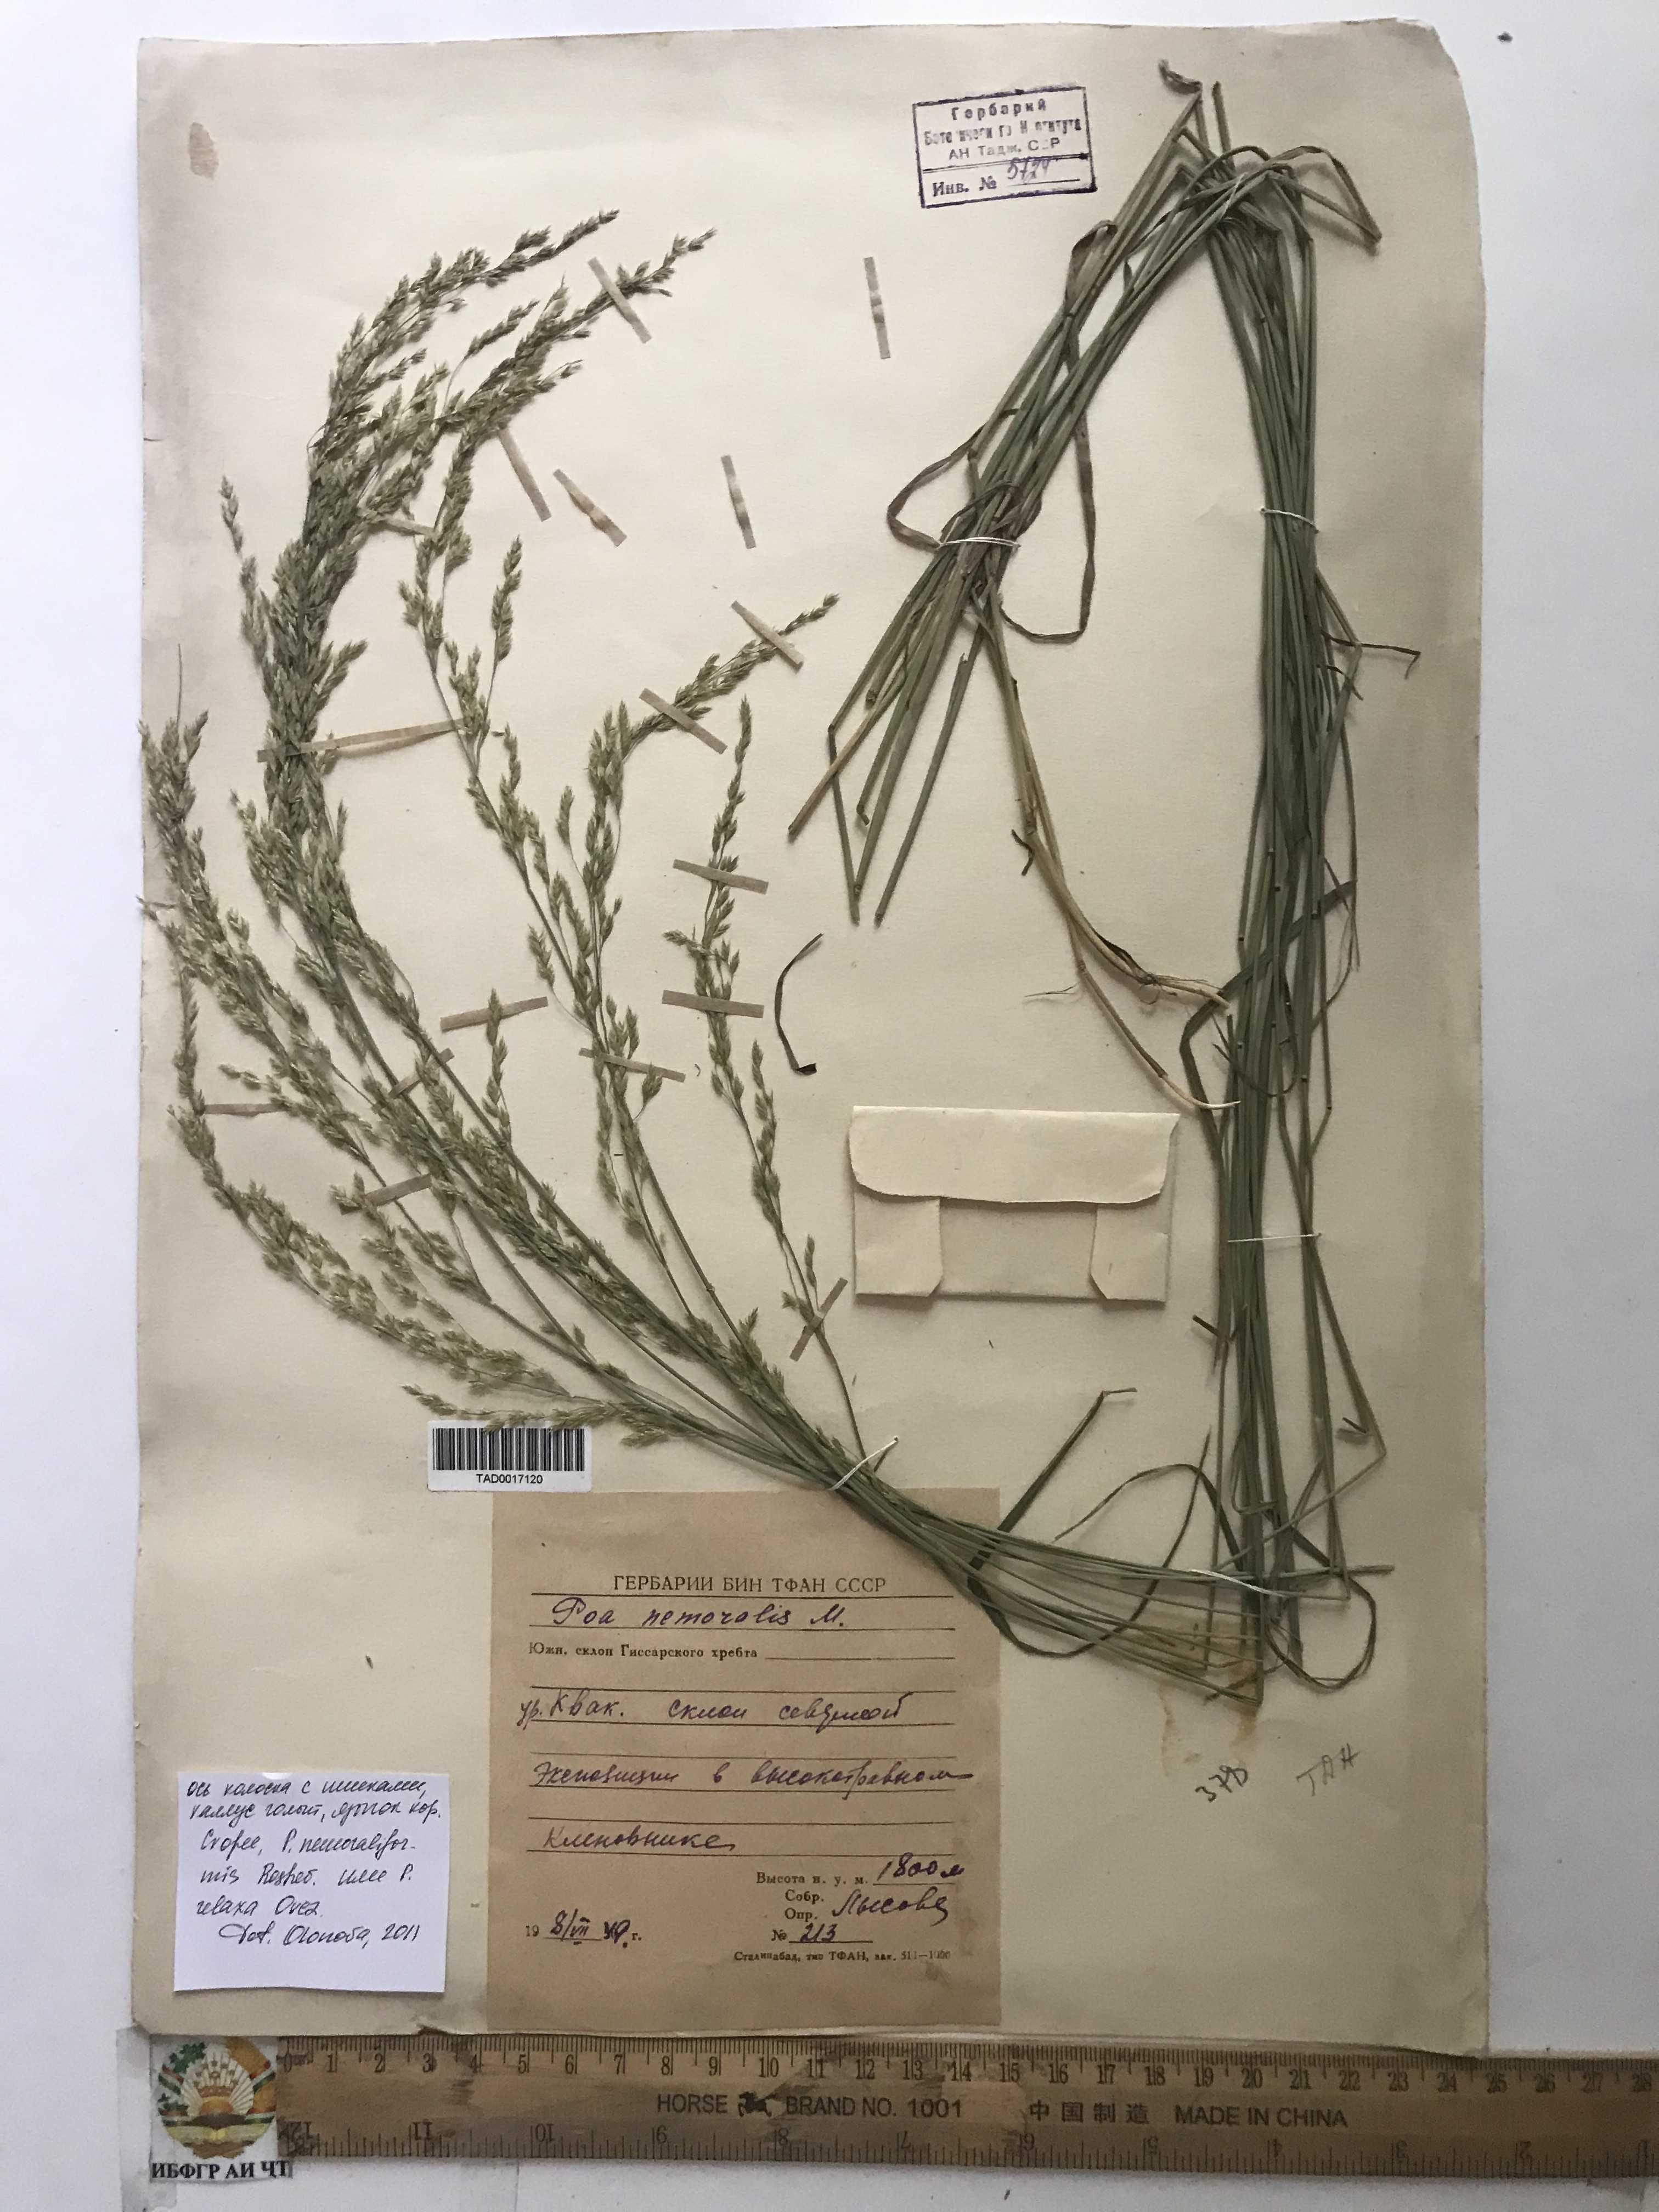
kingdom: Plantae
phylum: Tracheophyta
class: Liliopsida
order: Poales
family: Poaceae
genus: Poa
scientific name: Poa nemoralis
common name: Wood bluegrass
